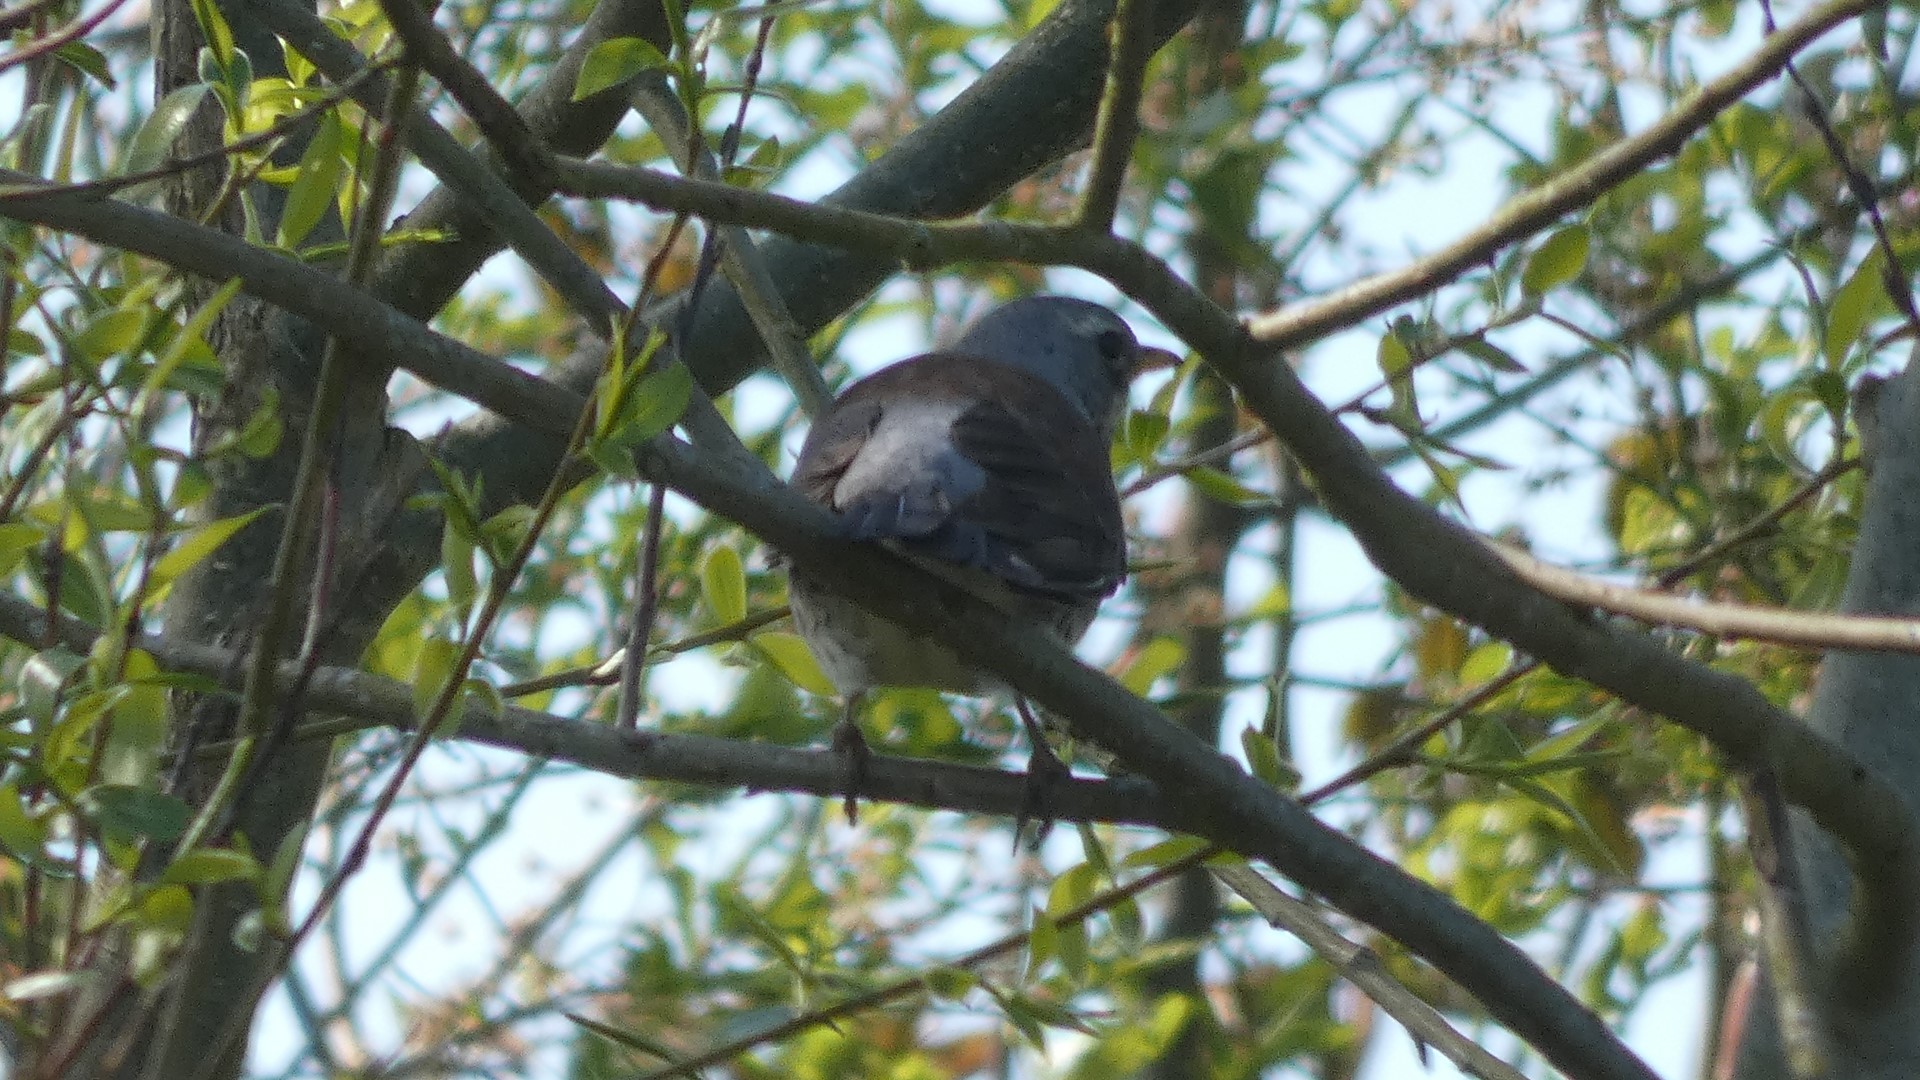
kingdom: Animalia
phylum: Chordata
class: Aves
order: Passeriformes
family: Turdidae
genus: Turdus
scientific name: Turdus pilaris
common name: Sjagger
